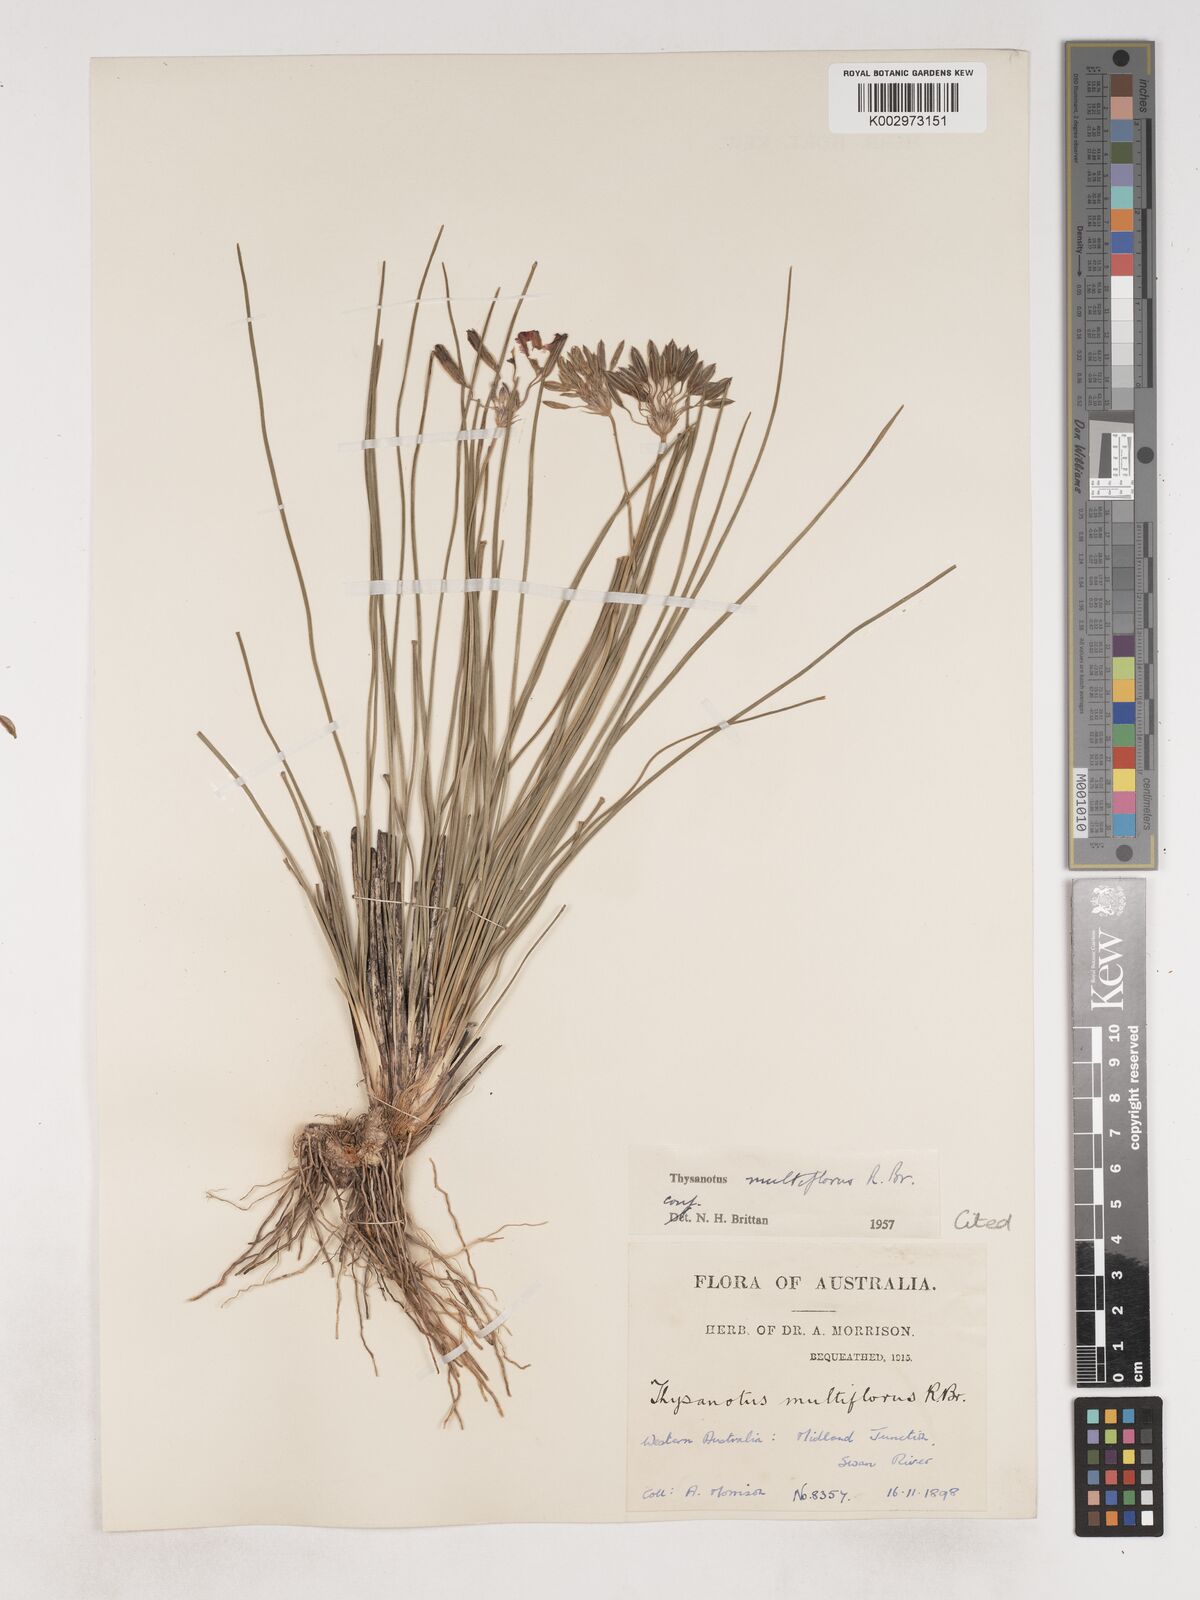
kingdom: Plantae
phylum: Tracheophyta
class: Liliopsida
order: Asparagales
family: Asparagaceae
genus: Thysanotus
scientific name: Thysanotus multiflorus
